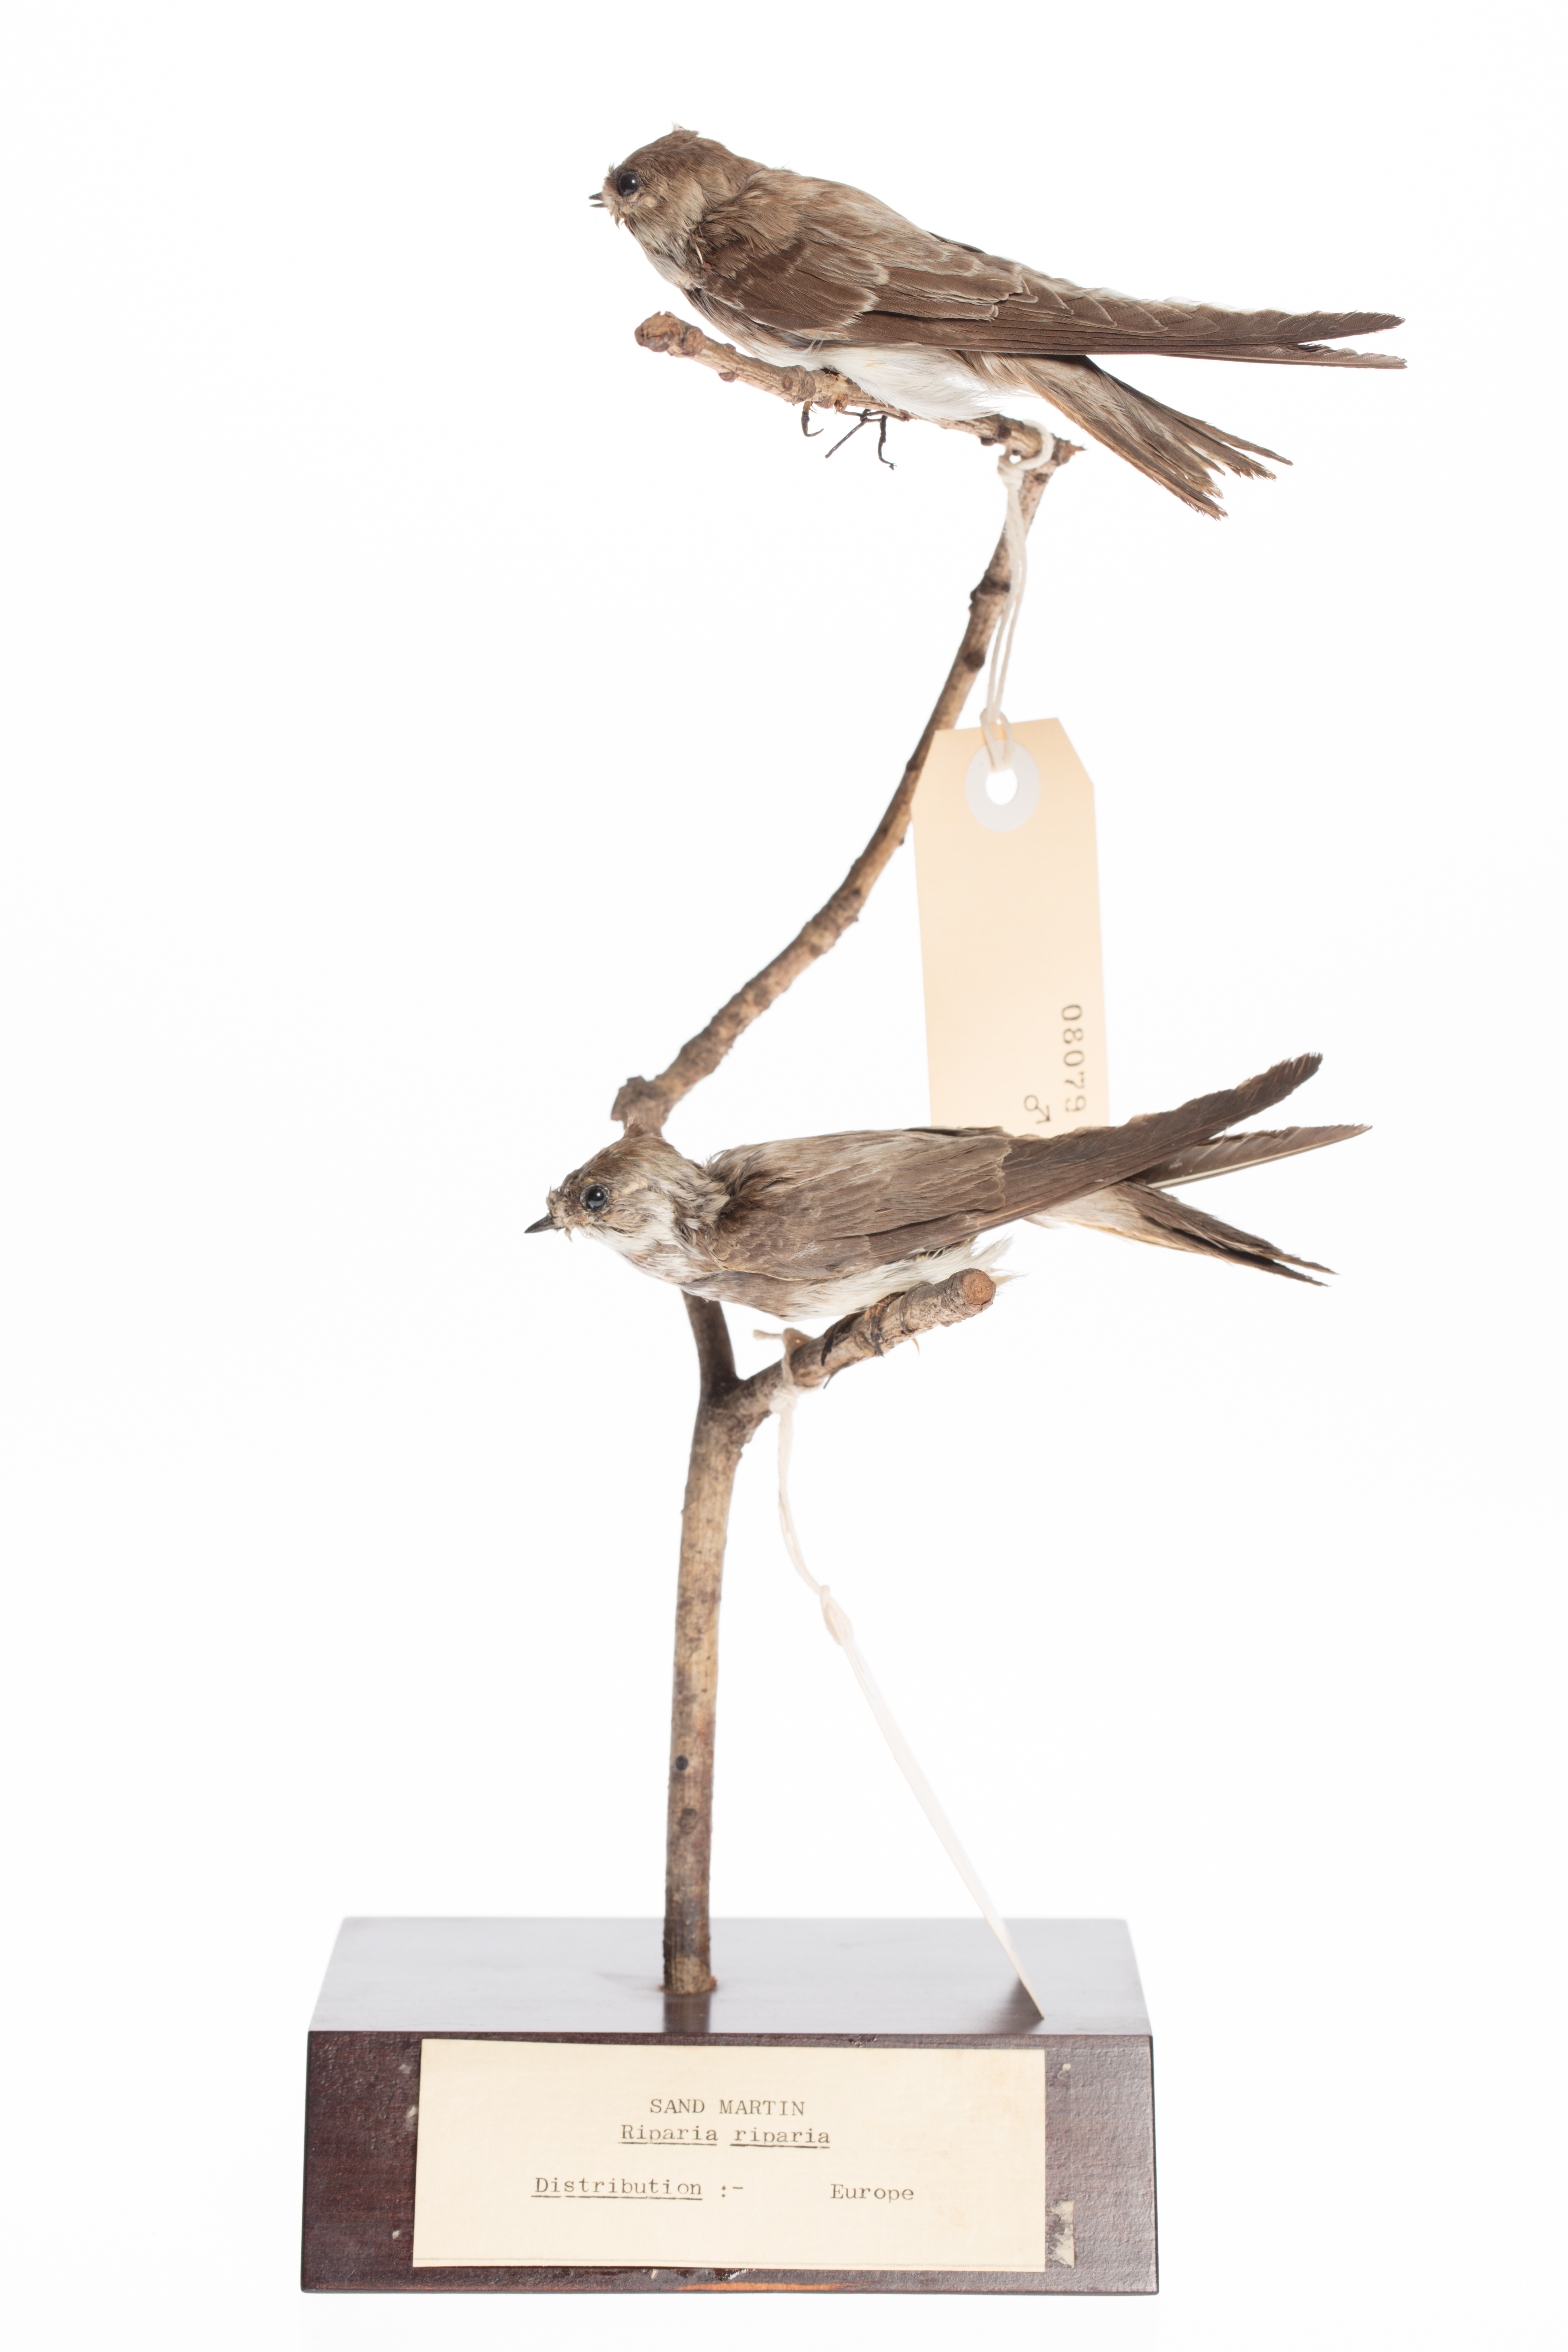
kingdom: Animalia
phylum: Chordata
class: Aves
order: Passeriformes
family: Hirundinidae
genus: Riparia
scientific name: Riparia riparia
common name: Sand martin
